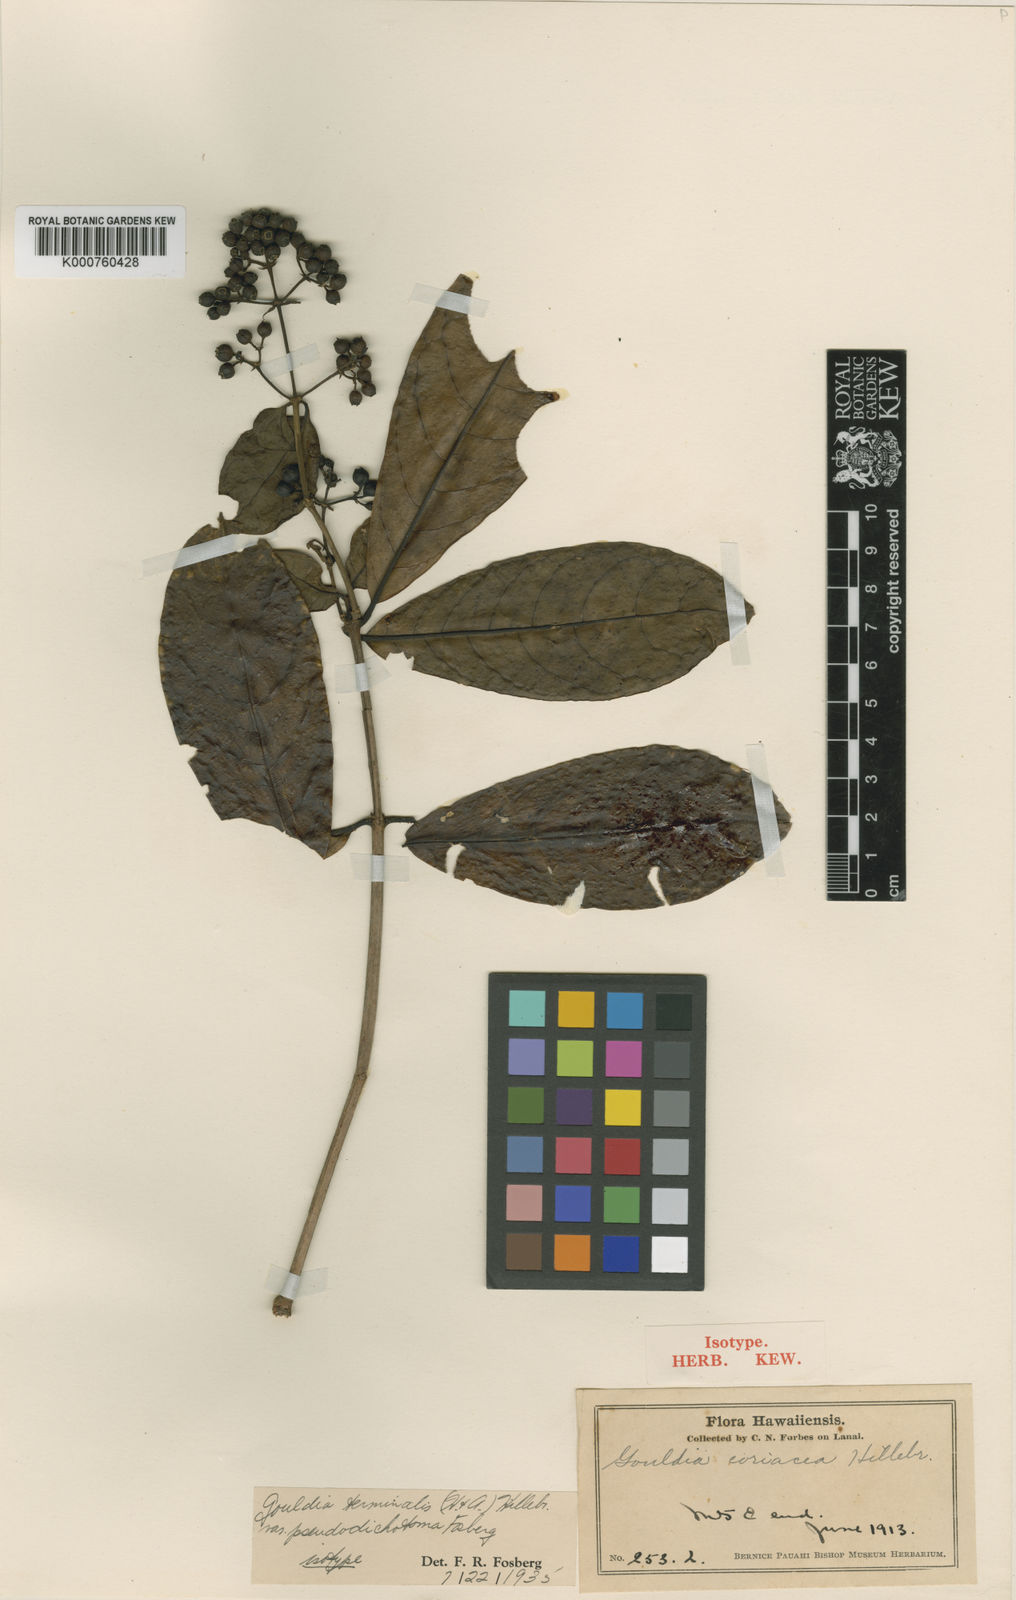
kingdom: Plantae
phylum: Tracheophyta
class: Magnoliopsida
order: Gentianales
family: Rubiaceae
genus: Kadua
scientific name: Kadua affinis
